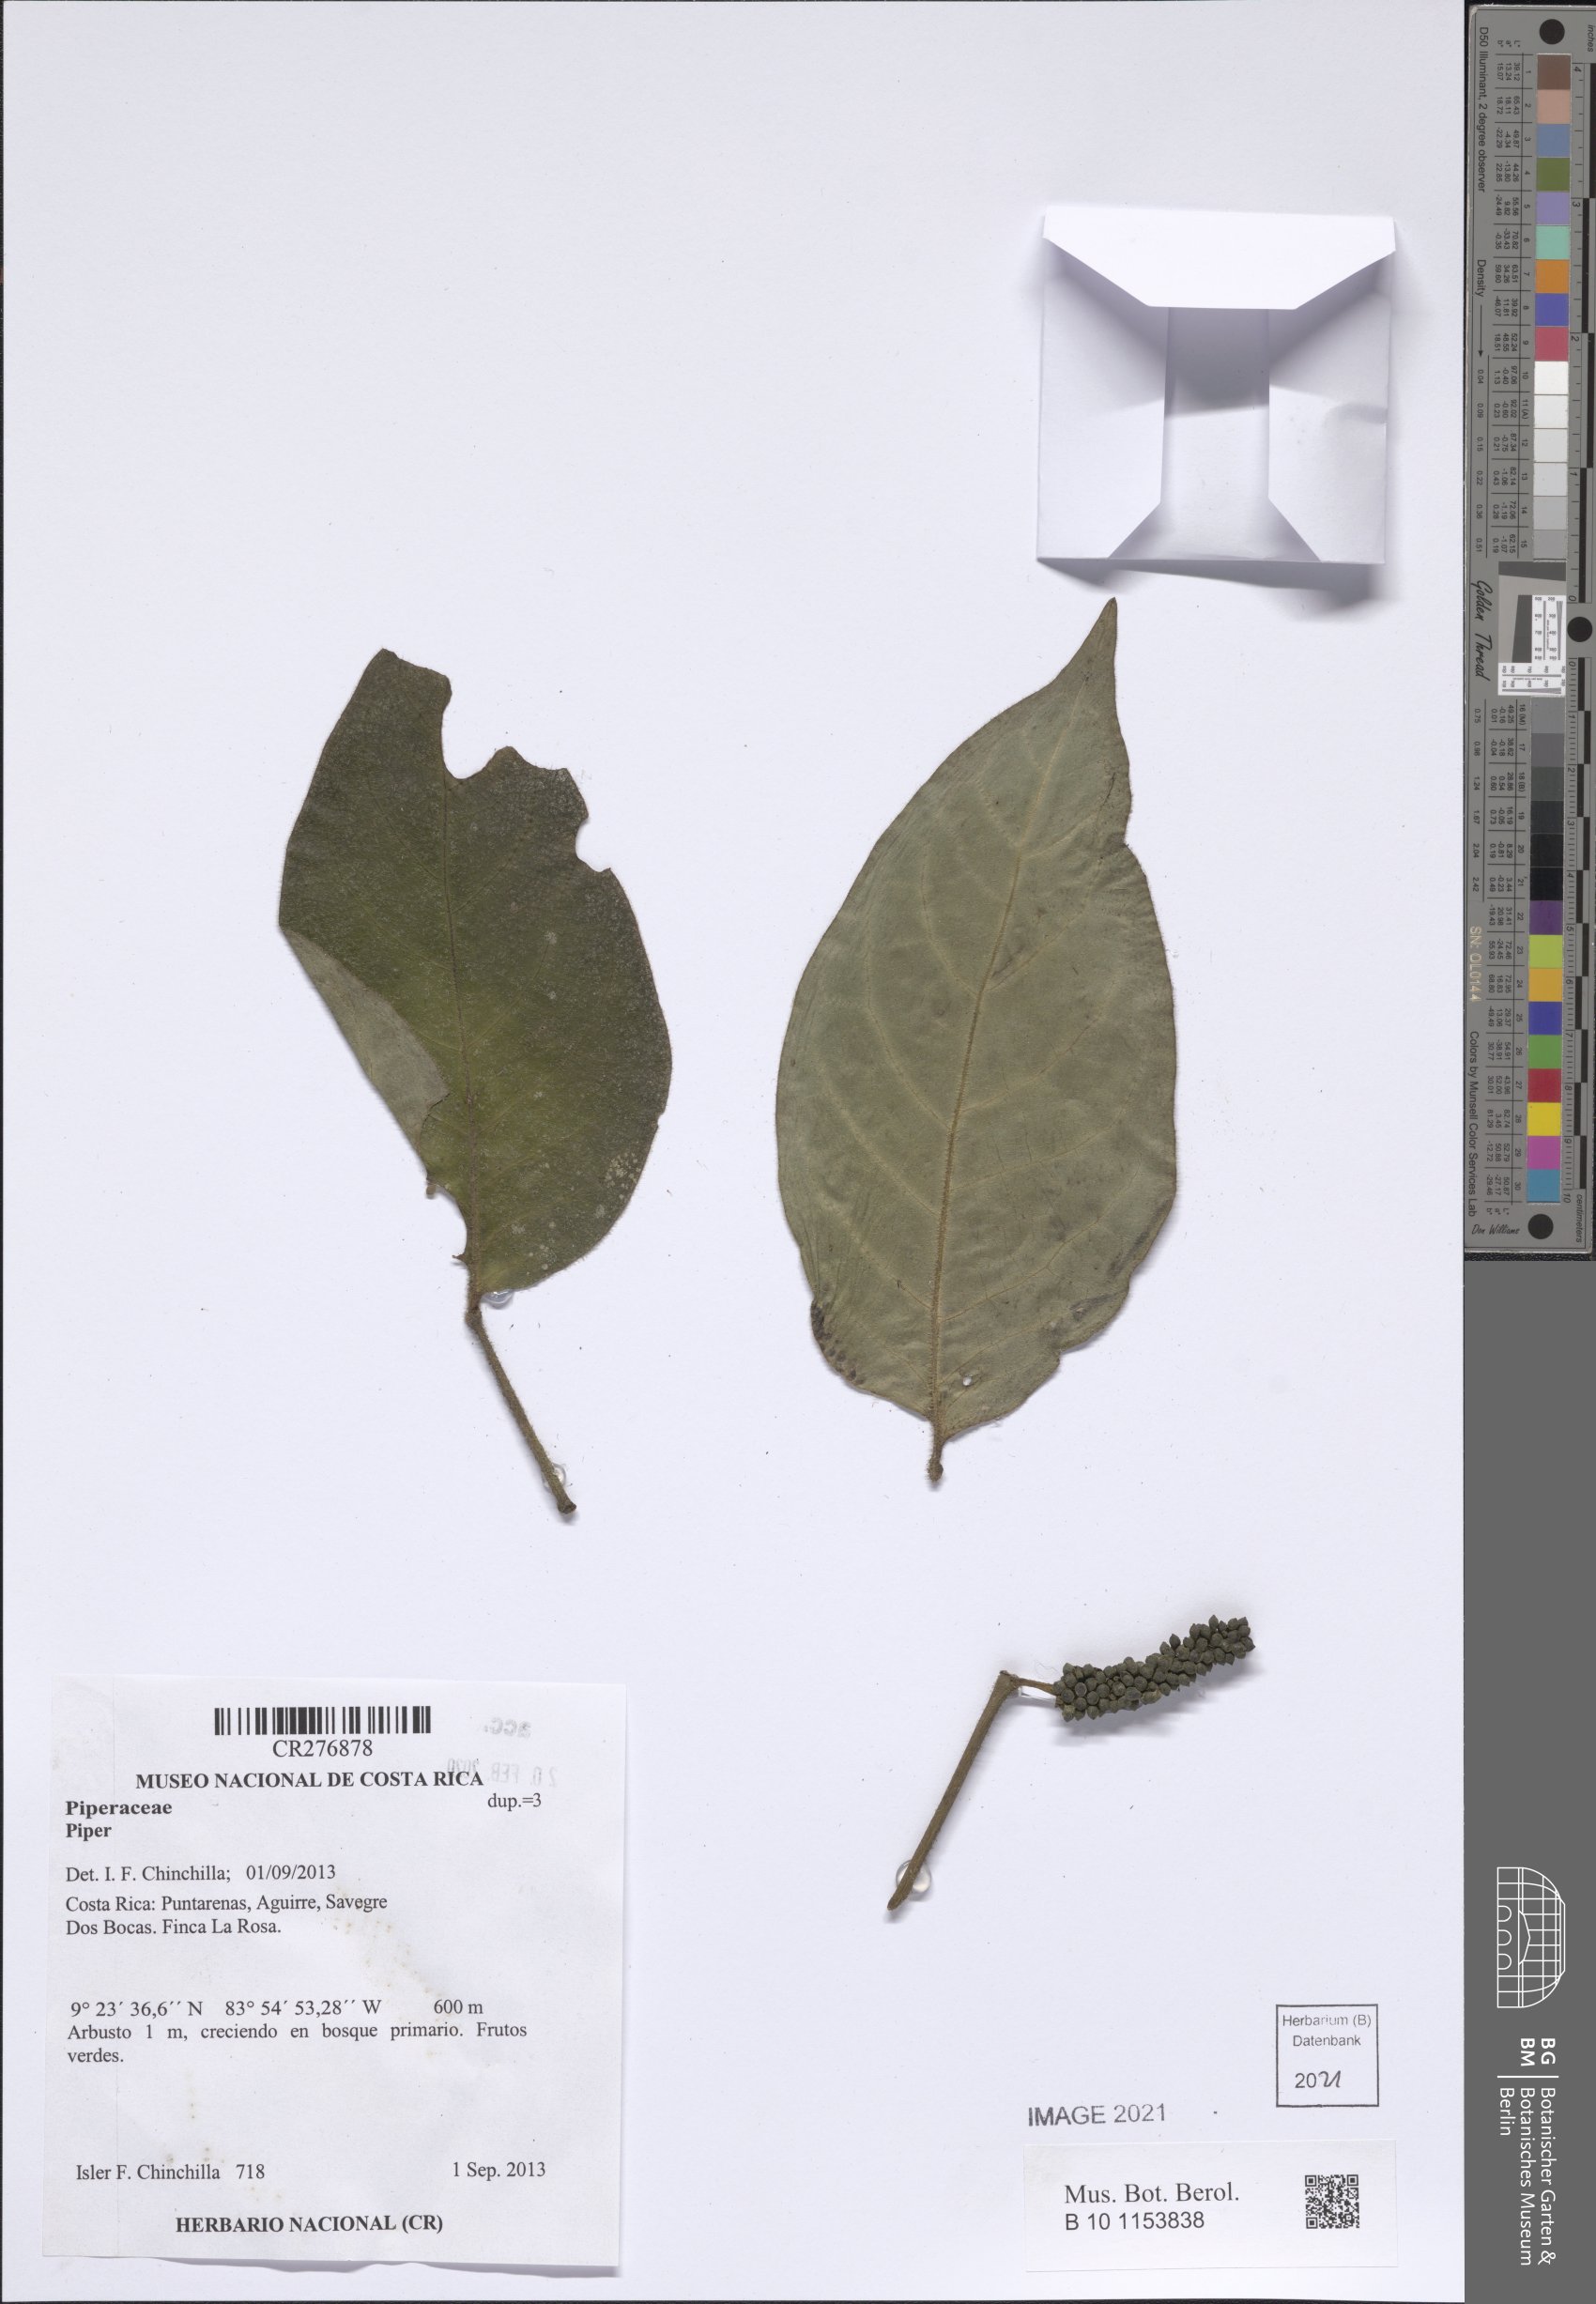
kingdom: Plantae
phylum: Tracheophyta
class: Magnoliopsida
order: Piperales
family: Piperaceae
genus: Piper
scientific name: Piper
